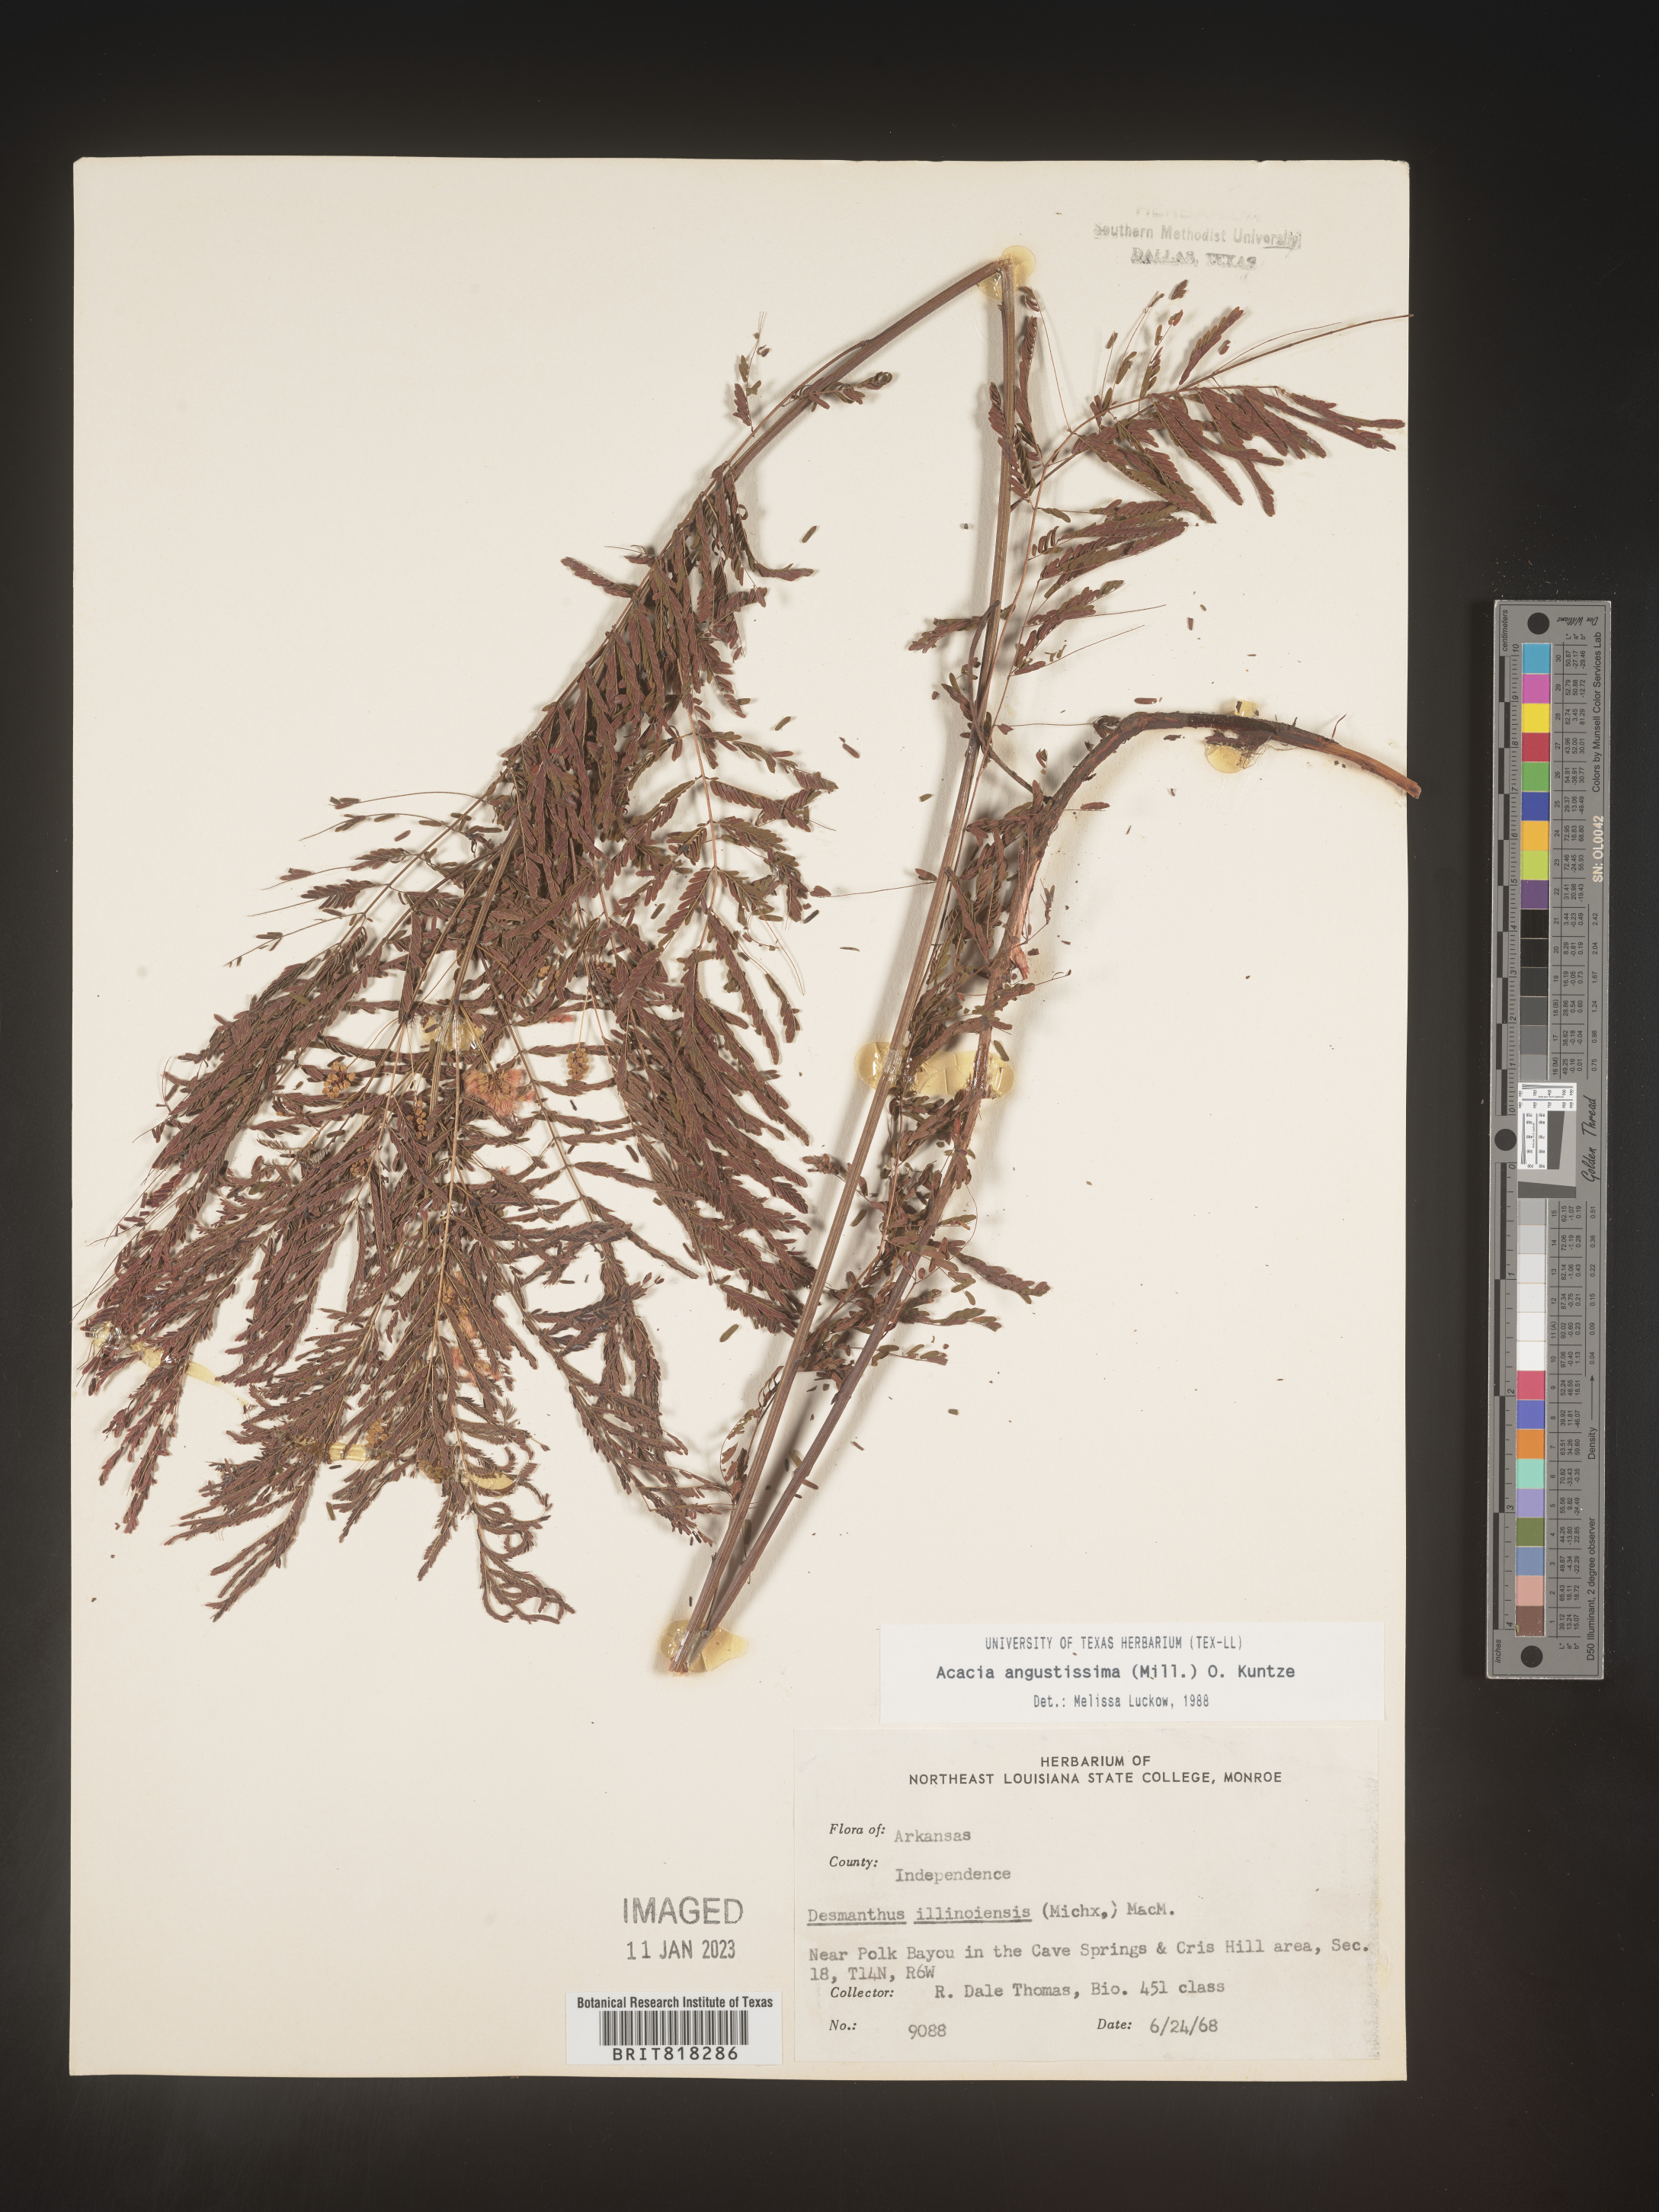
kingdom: Plantae
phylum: Tracheophyta
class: Magnoliopsida
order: Fabales
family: Fabaceae
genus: Desmanthus
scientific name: Desmanthus
